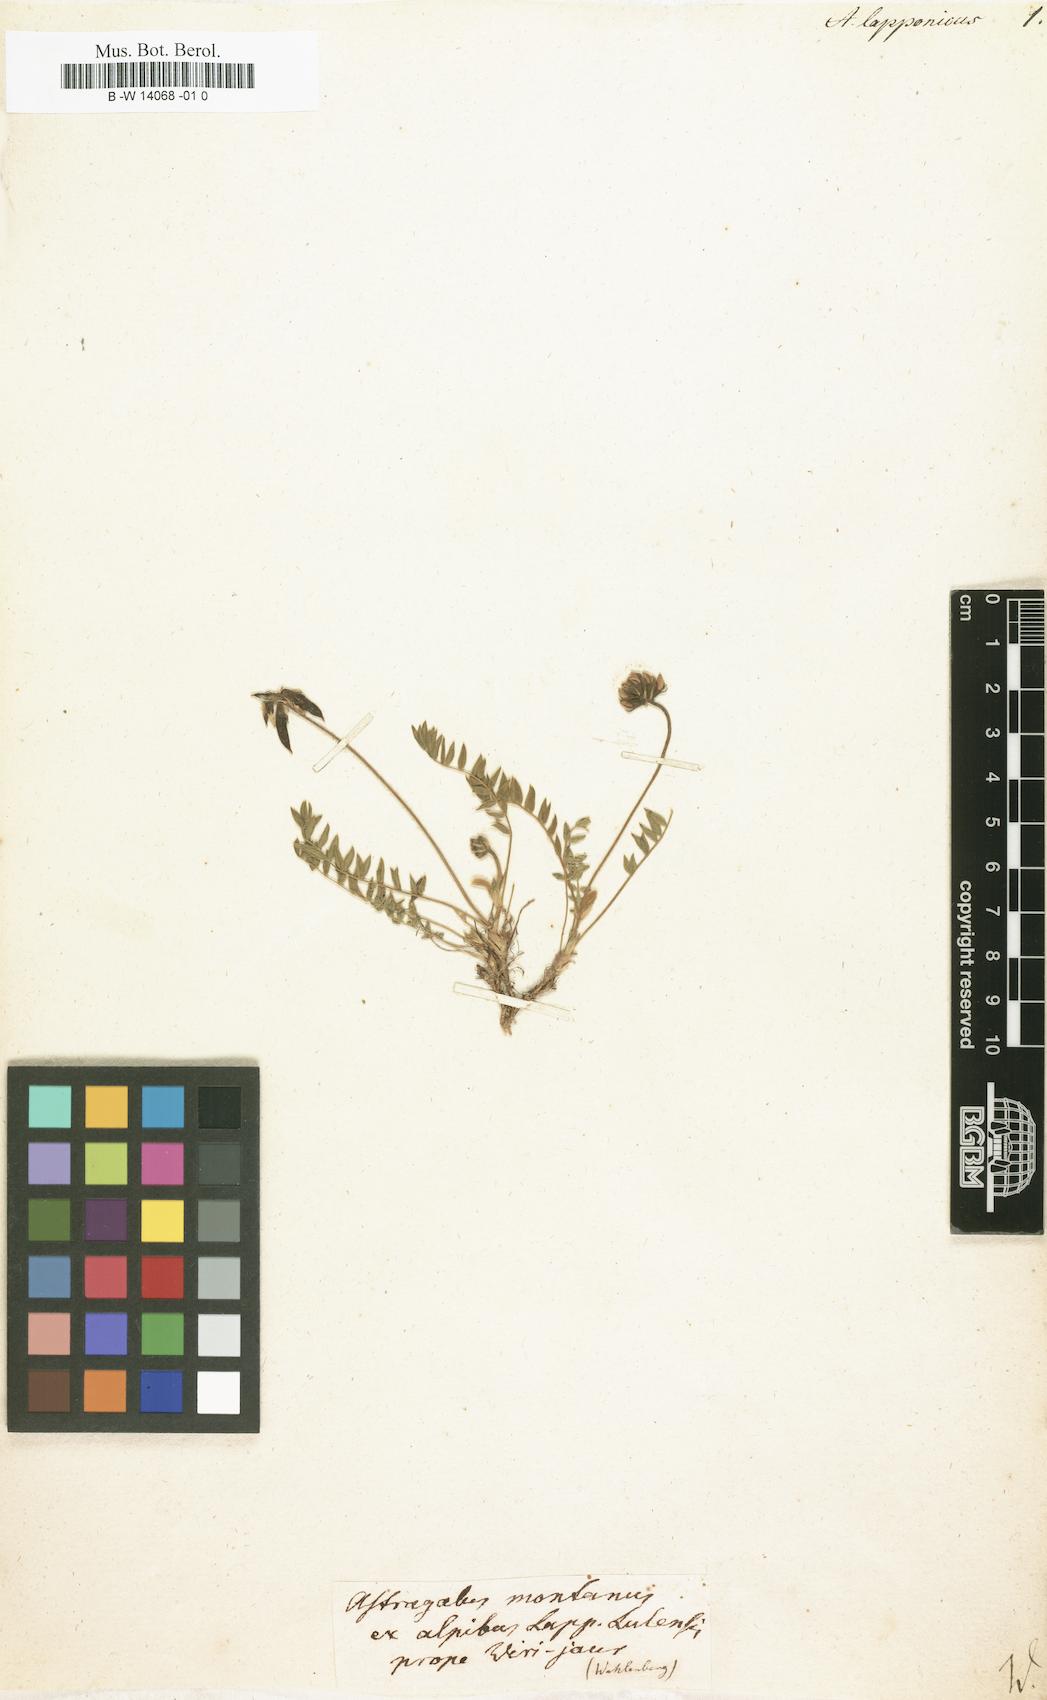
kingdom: Plantae
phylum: Tracheophyta
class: Magnoliopsida
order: Fabales
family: Fabaceae
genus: Oxytropis
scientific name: Oxytropis lapponica
